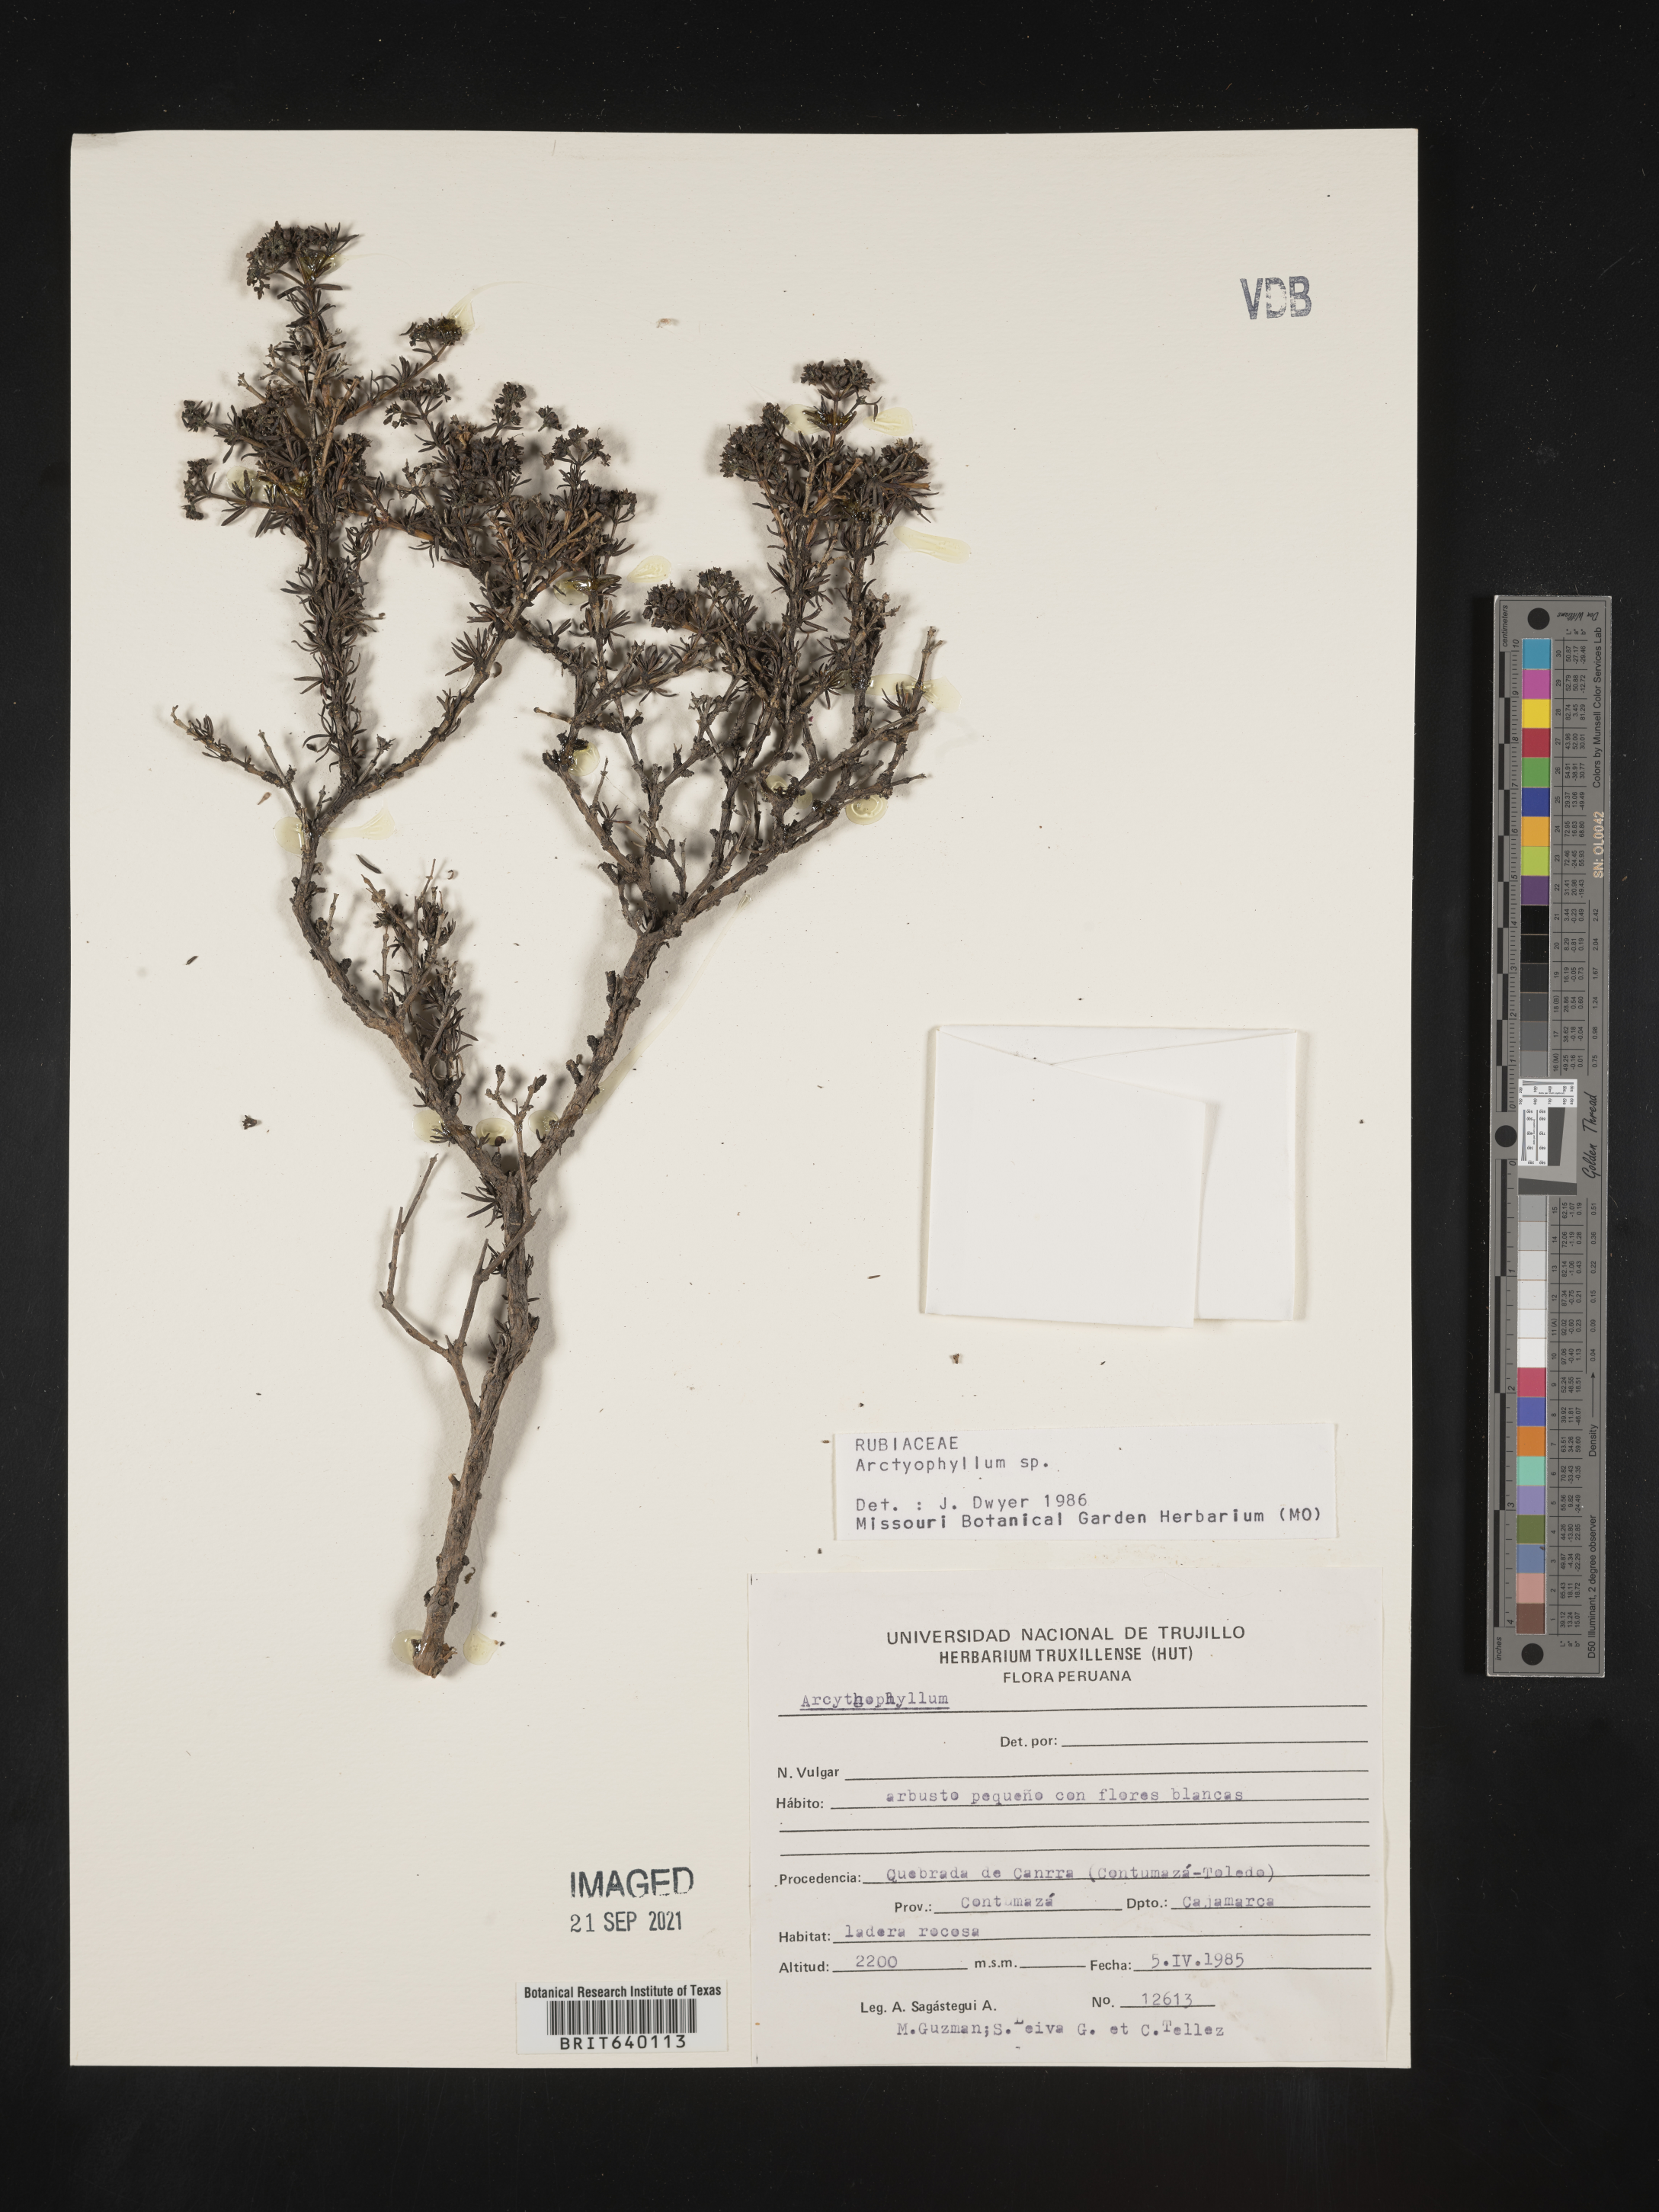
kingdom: Plantae
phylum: Tracheophyta
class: Magnoliopsida
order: Gentianales
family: Rubiaceae
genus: Arcytophyllum
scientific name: Arcytophyllum
